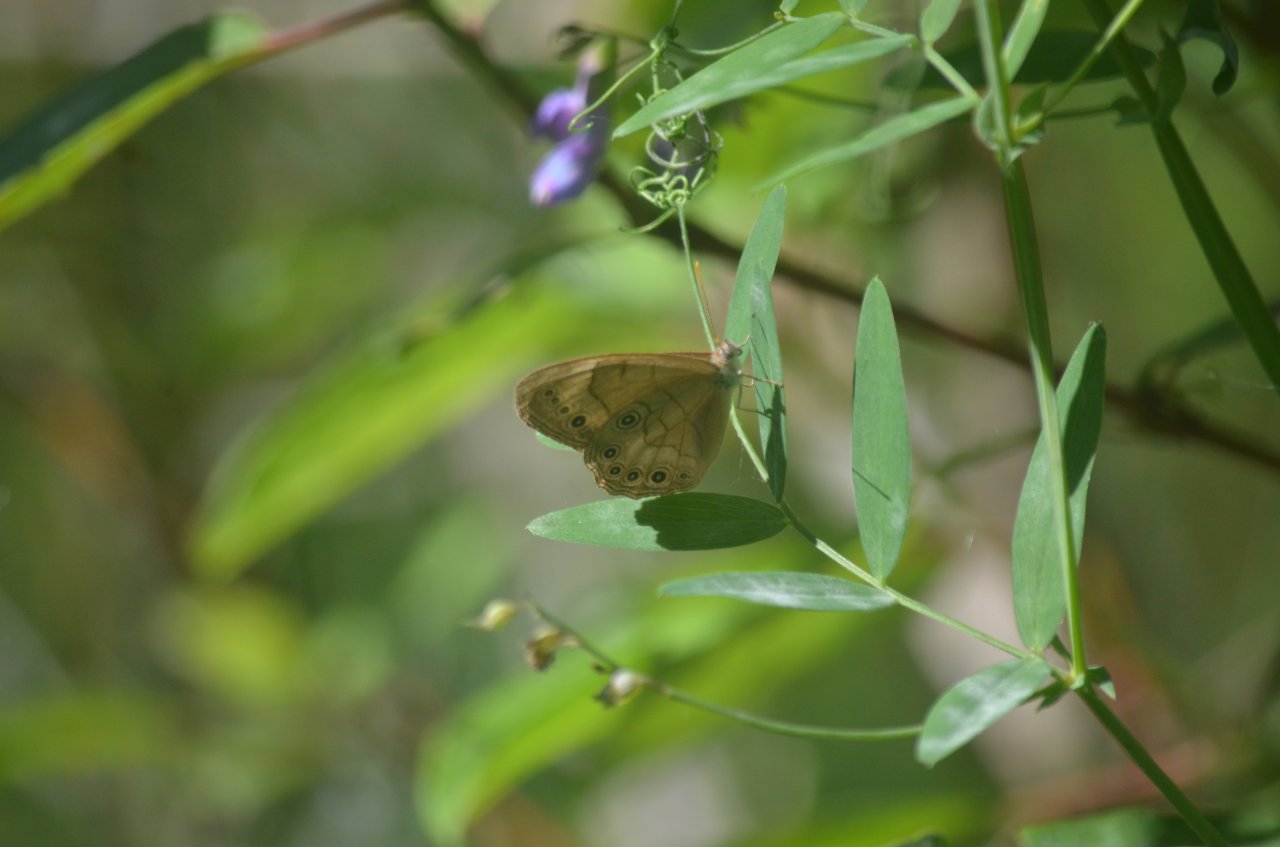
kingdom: Animalia
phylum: Arthropoda
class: Insecta
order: Lepidoptera
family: Nymphalidae
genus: Lethe
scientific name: Lethe eurydice
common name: Appalachian Eyed Brown
